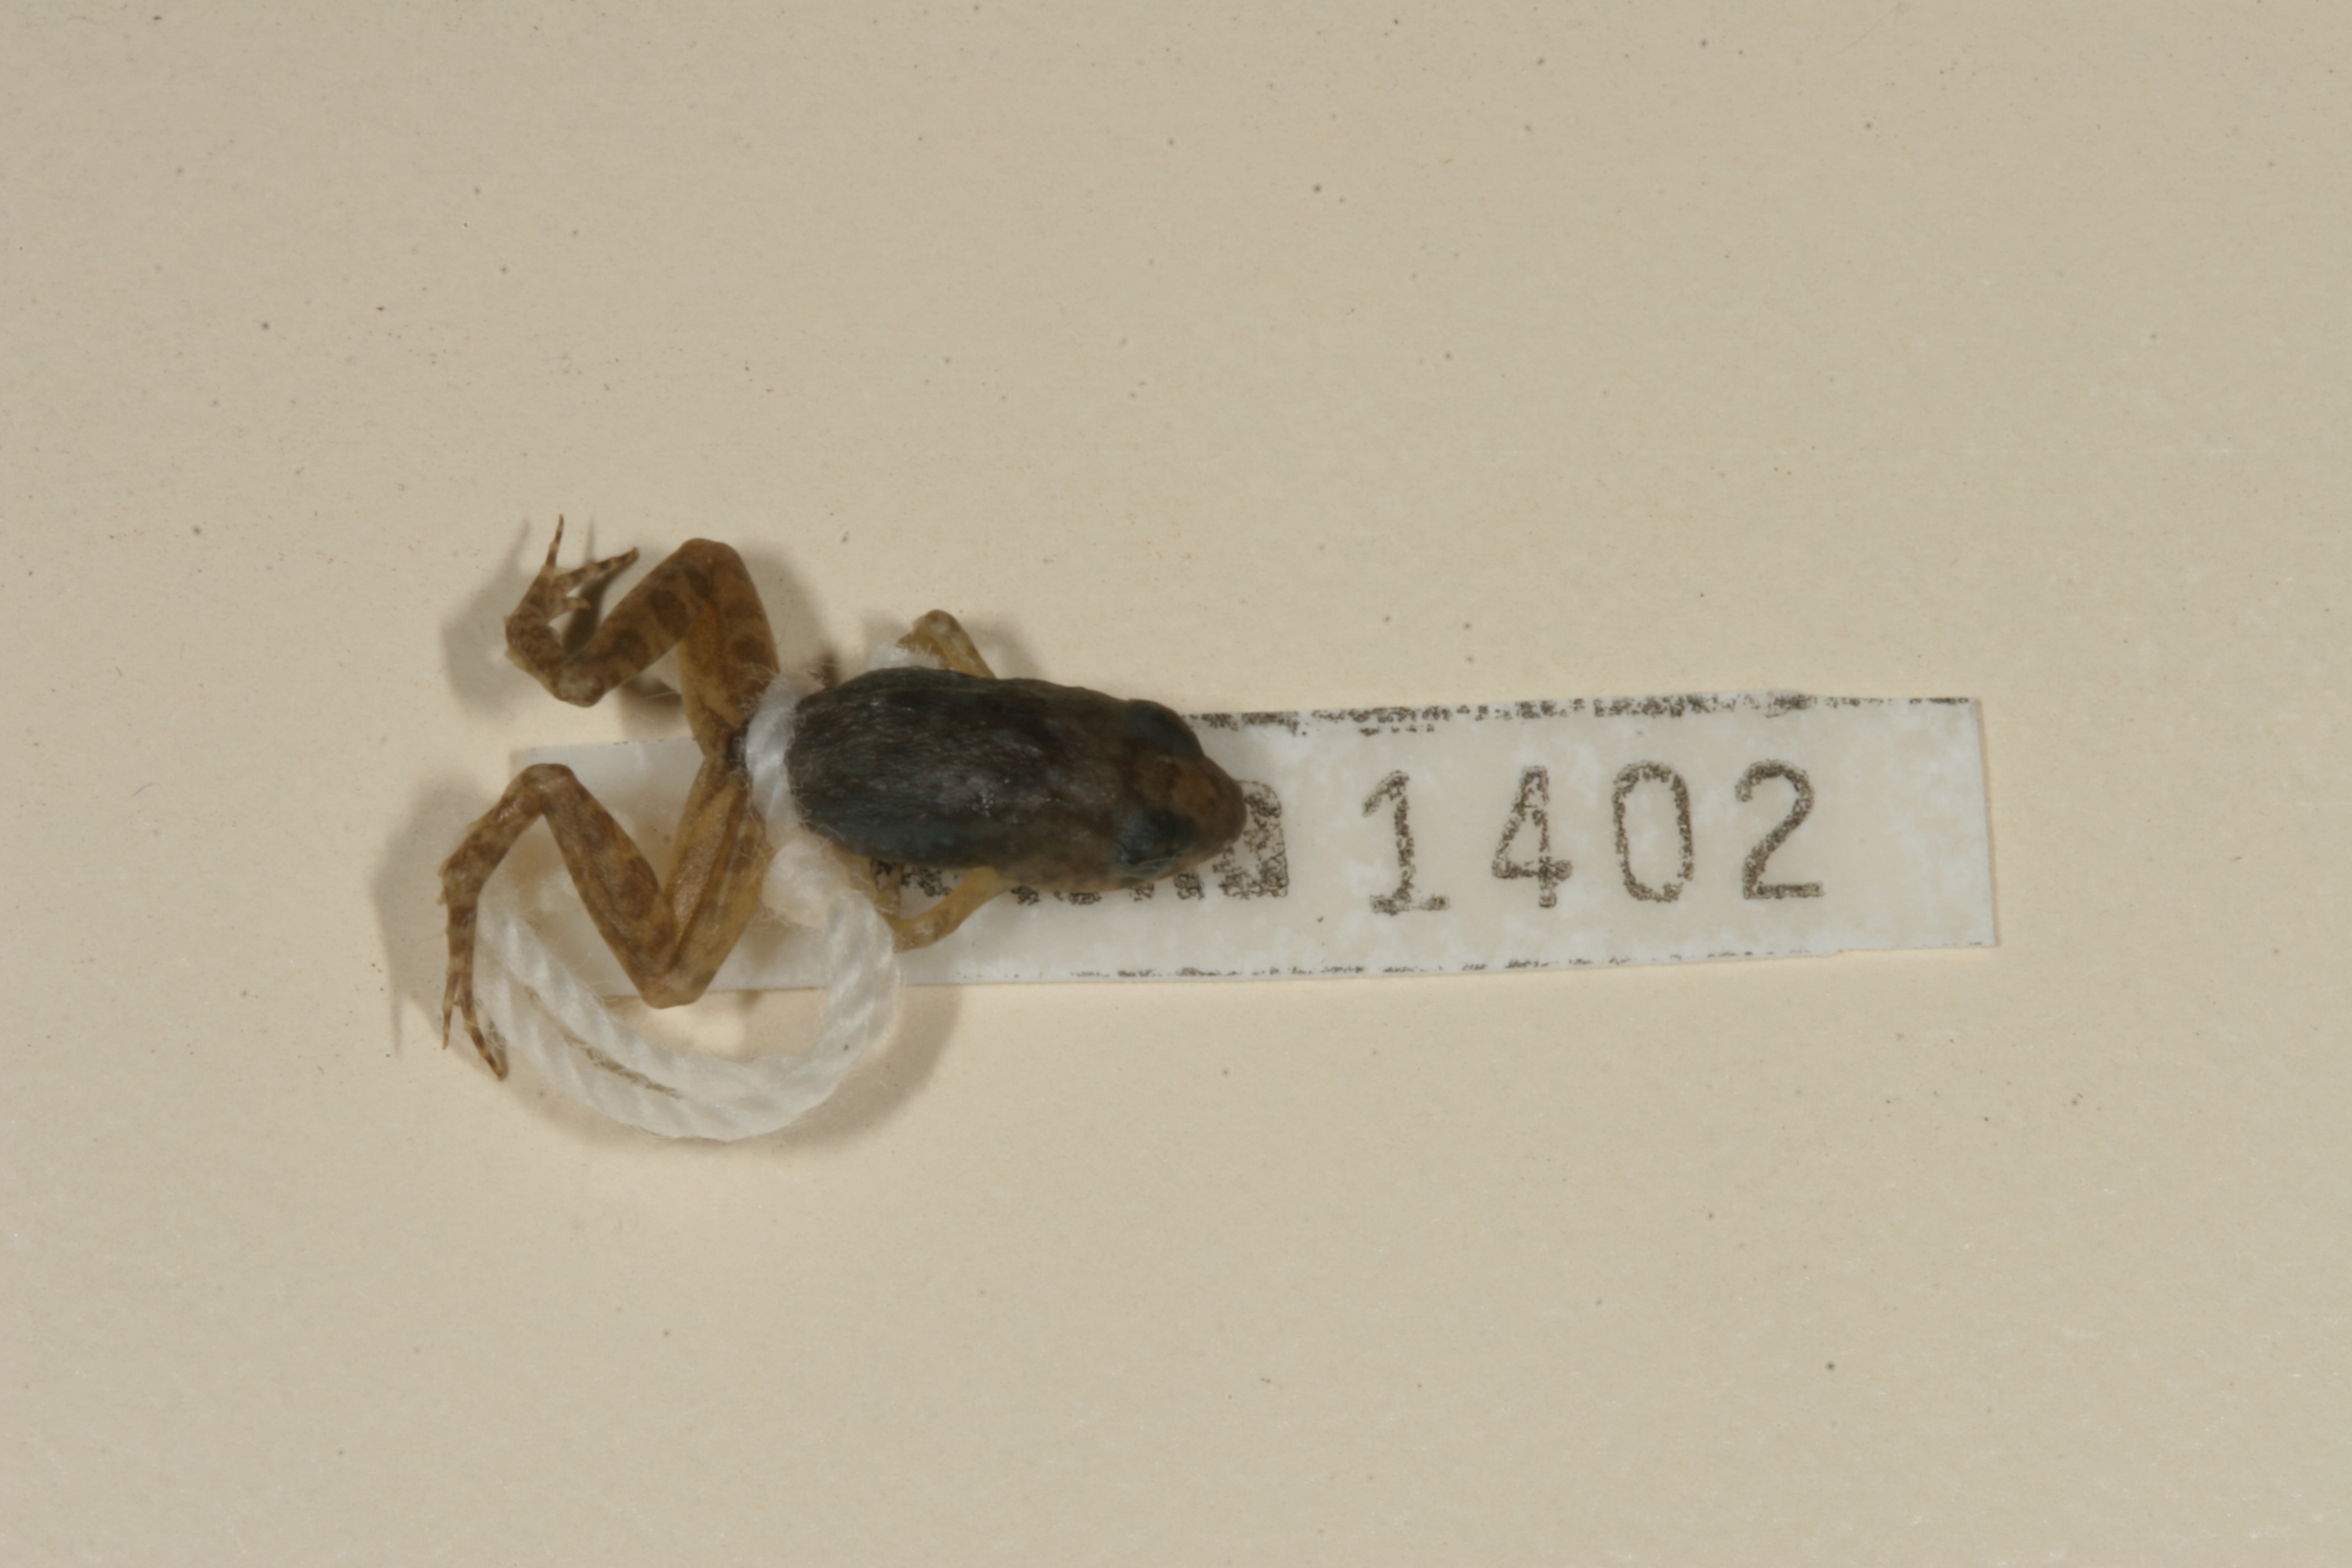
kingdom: Animalia
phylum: Chordata
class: Amphibia
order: Anura
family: Phrynobatrachidae
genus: Phrynobatrachus
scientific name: Phrynobatrachus mababiensis
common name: Dwarf puddle frog
